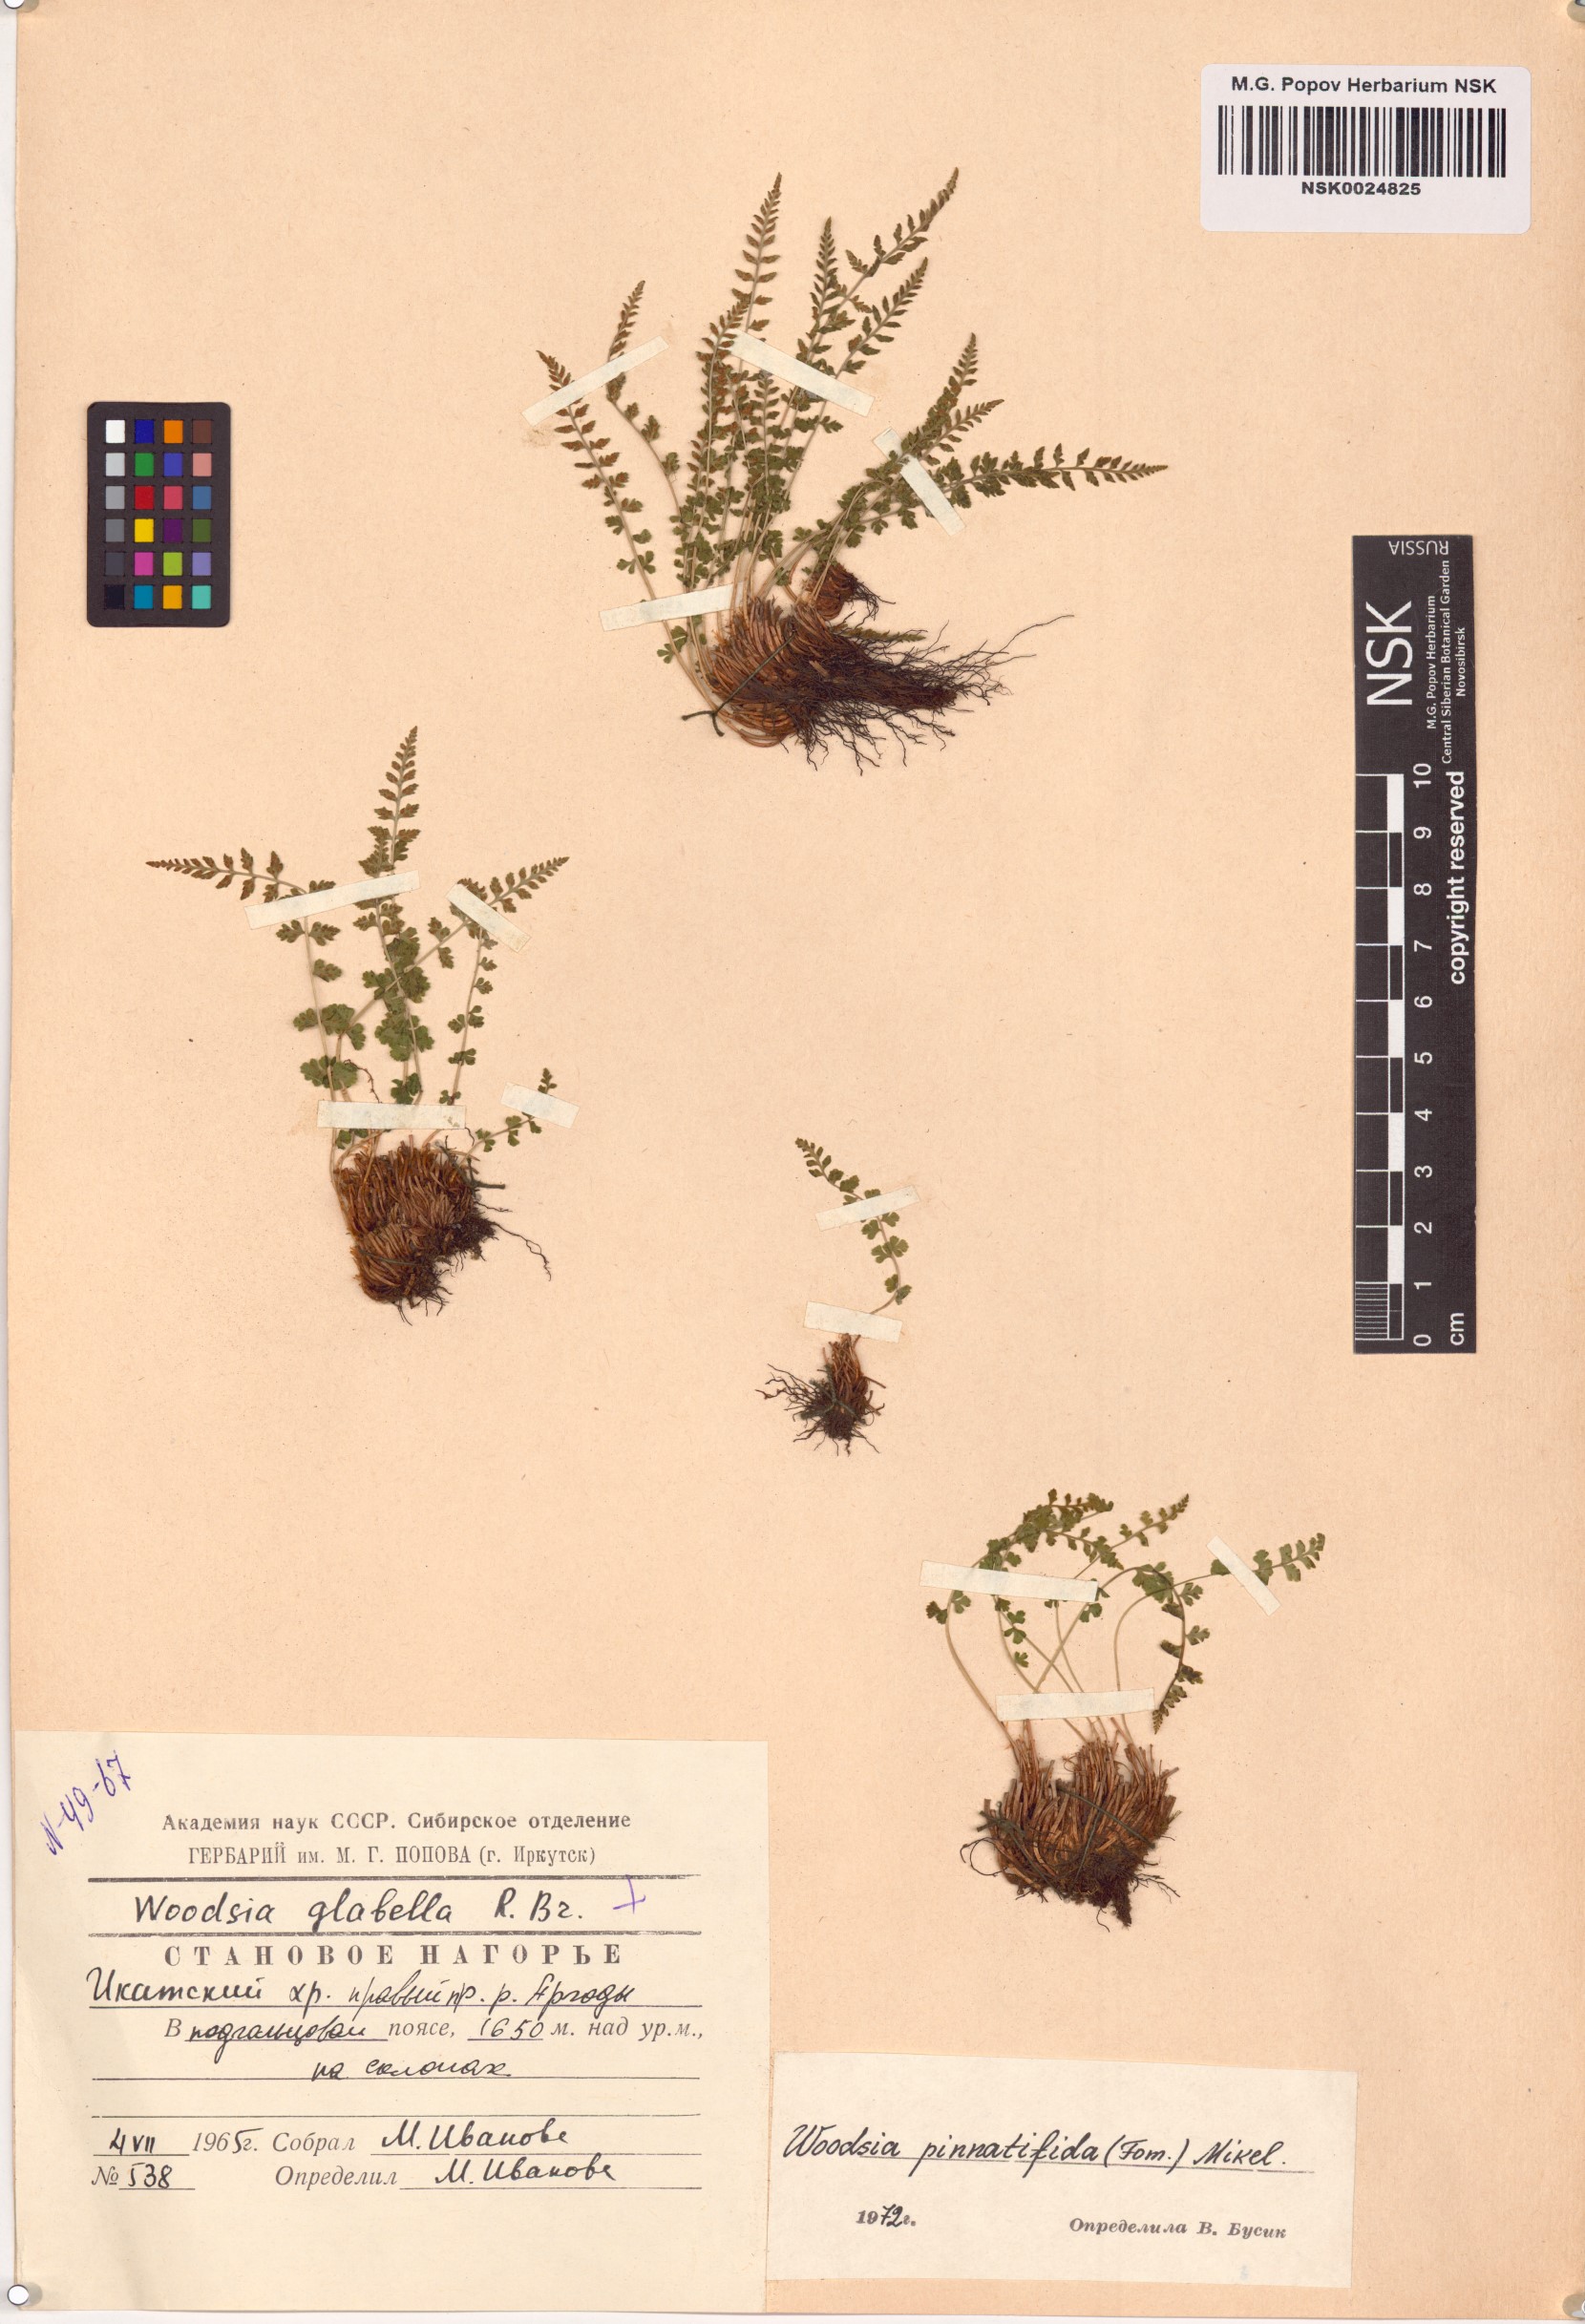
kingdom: Plantae
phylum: Tracheophyta
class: Polypodiopsida
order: Polypodiales
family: Woodsiaceae
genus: Woodsia
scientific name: Woodsia pulchella
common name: Graceful woodsia
